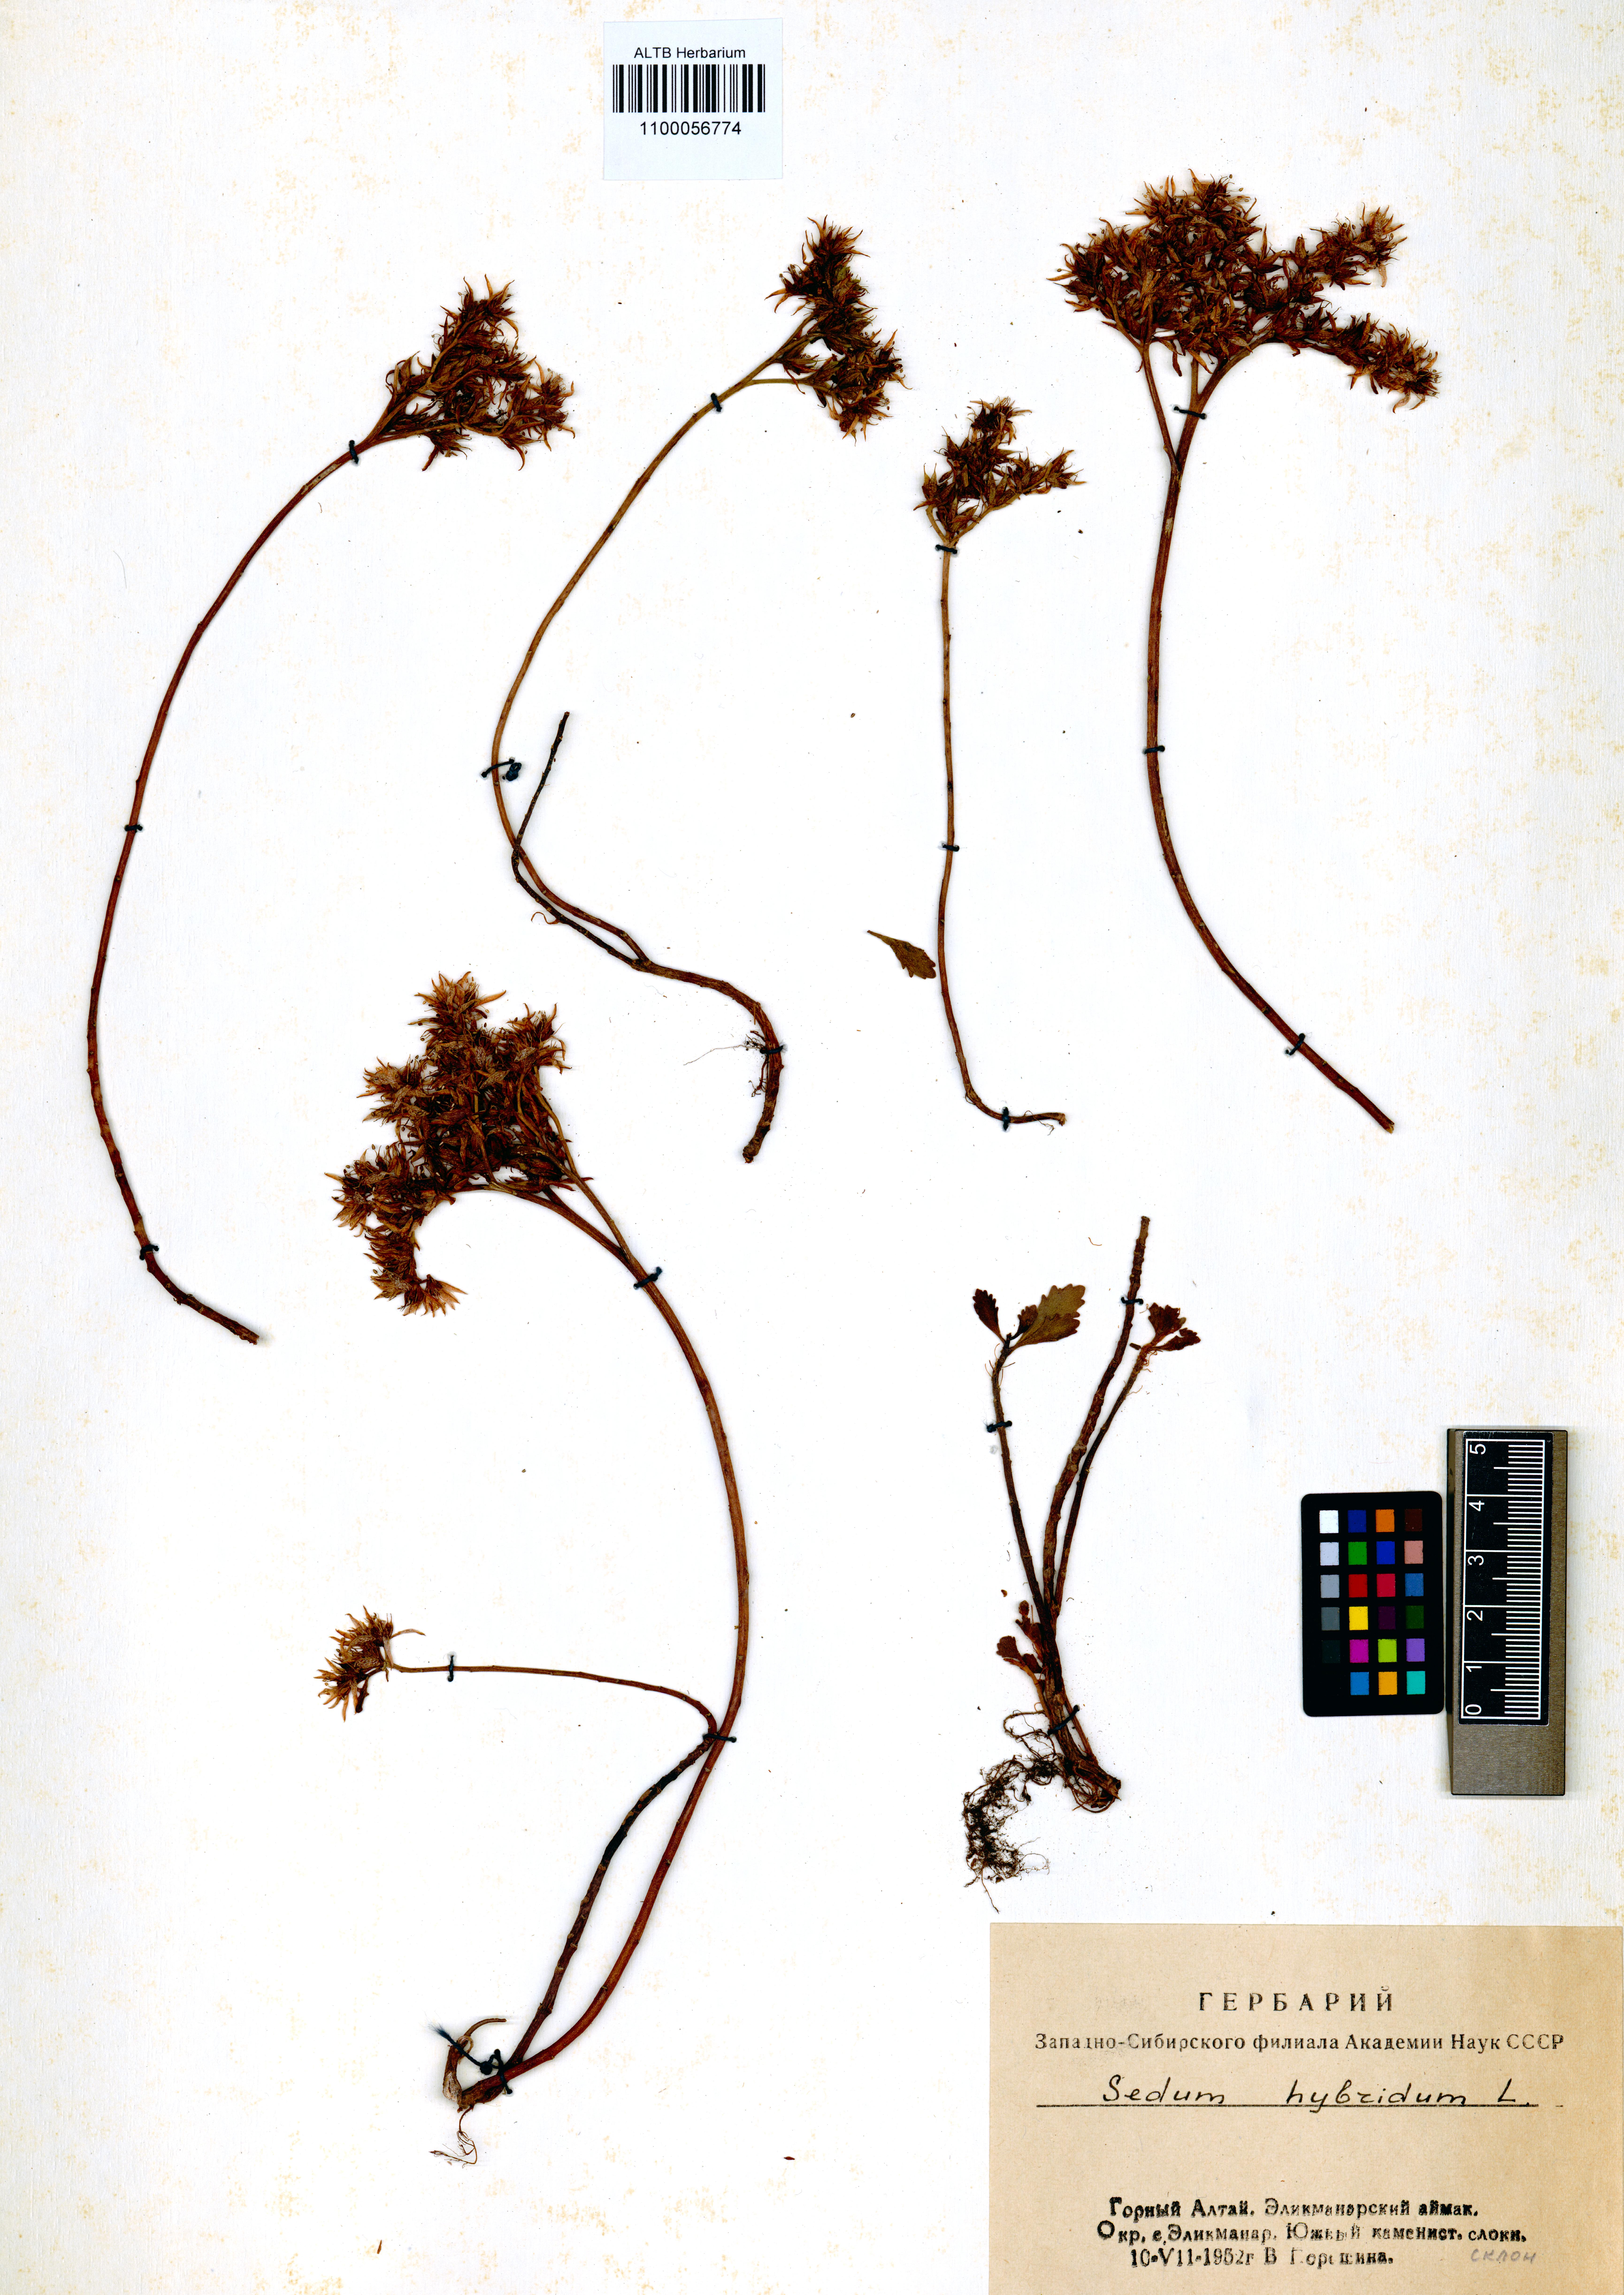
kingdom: Plantae
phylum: Tracheophyta
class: Magnoliopsida
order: Saxifragales
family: Crassulaceae
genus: Phedimus
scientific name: Phedimus hybridus
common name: Hybrid stonecrop
